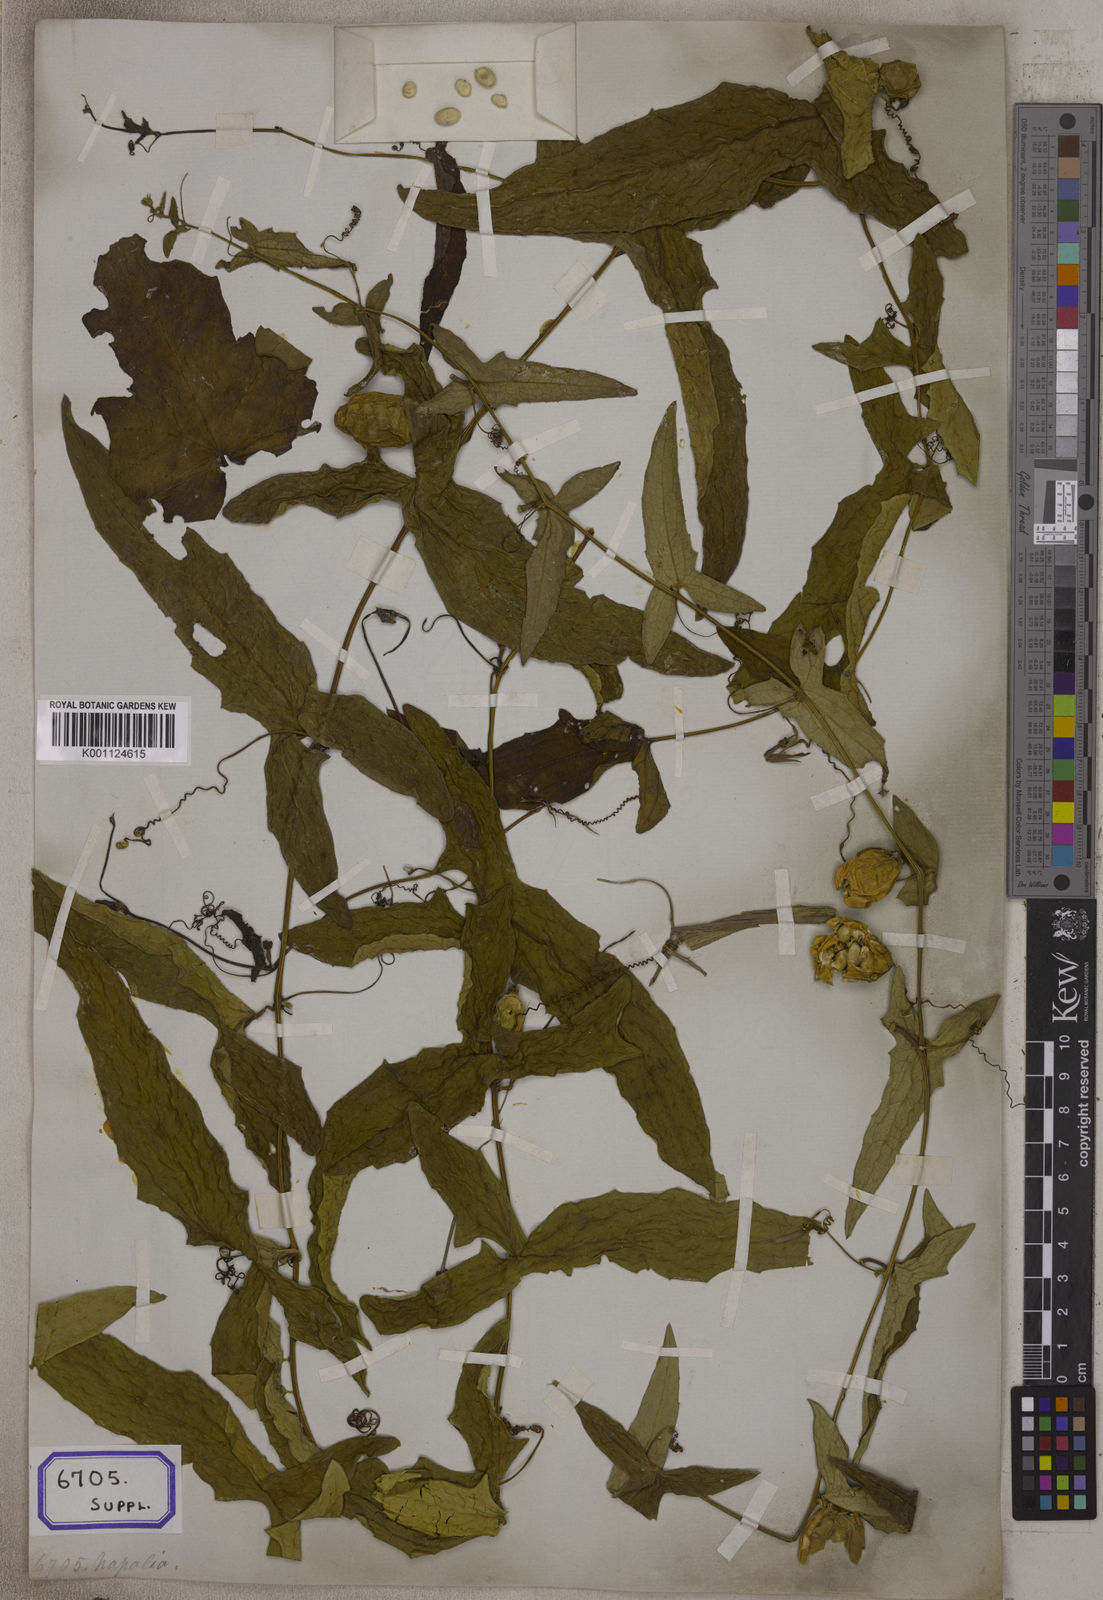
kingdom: Plantae
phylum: Tracheophyta
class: Magnoliopsida
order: Cucurbitales
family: Cucurbitaceae
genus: Bryonia
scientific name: Bryonia
